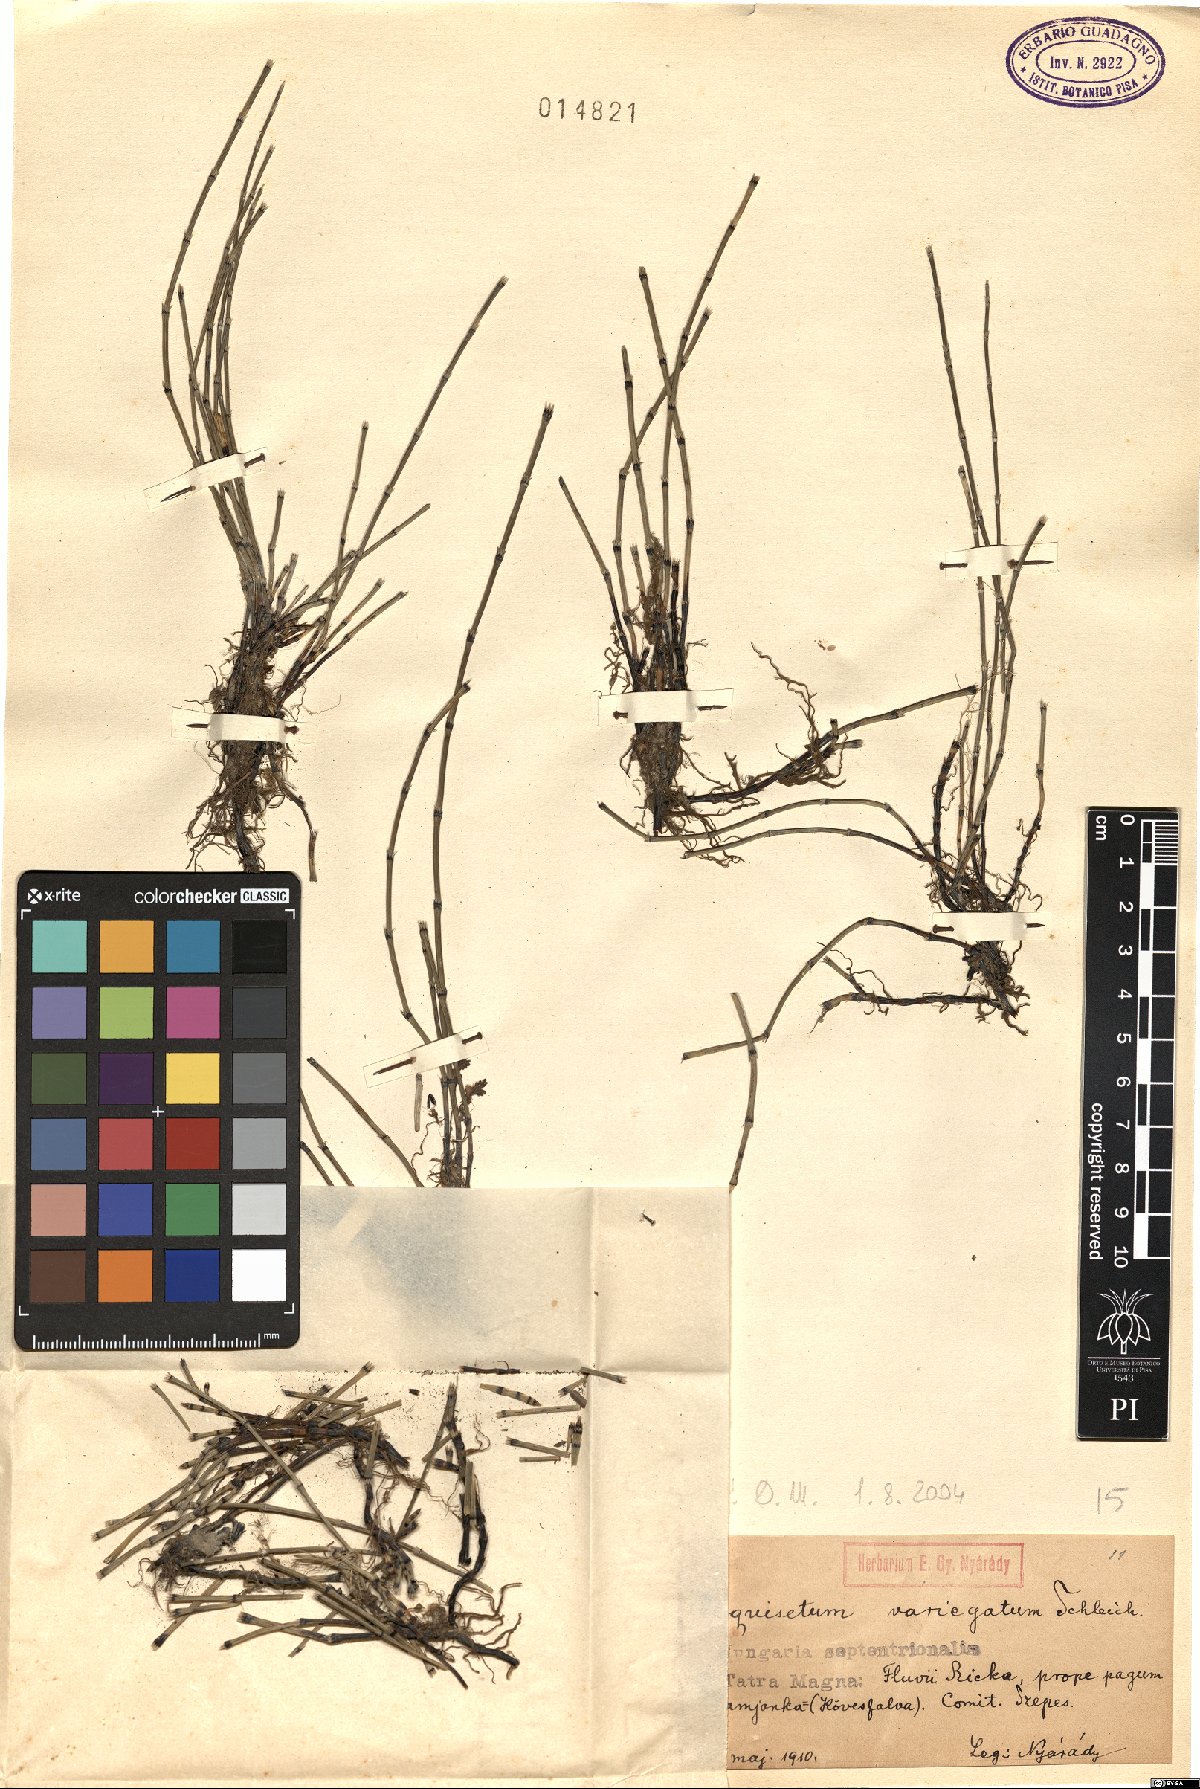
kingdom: Plantae
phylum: Tracheophyta
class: Polypodiopsida
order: Equisetales
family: Equisetaceae
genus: Equisetum
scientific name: Equisetum variegatum
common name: Variegated horsetail
